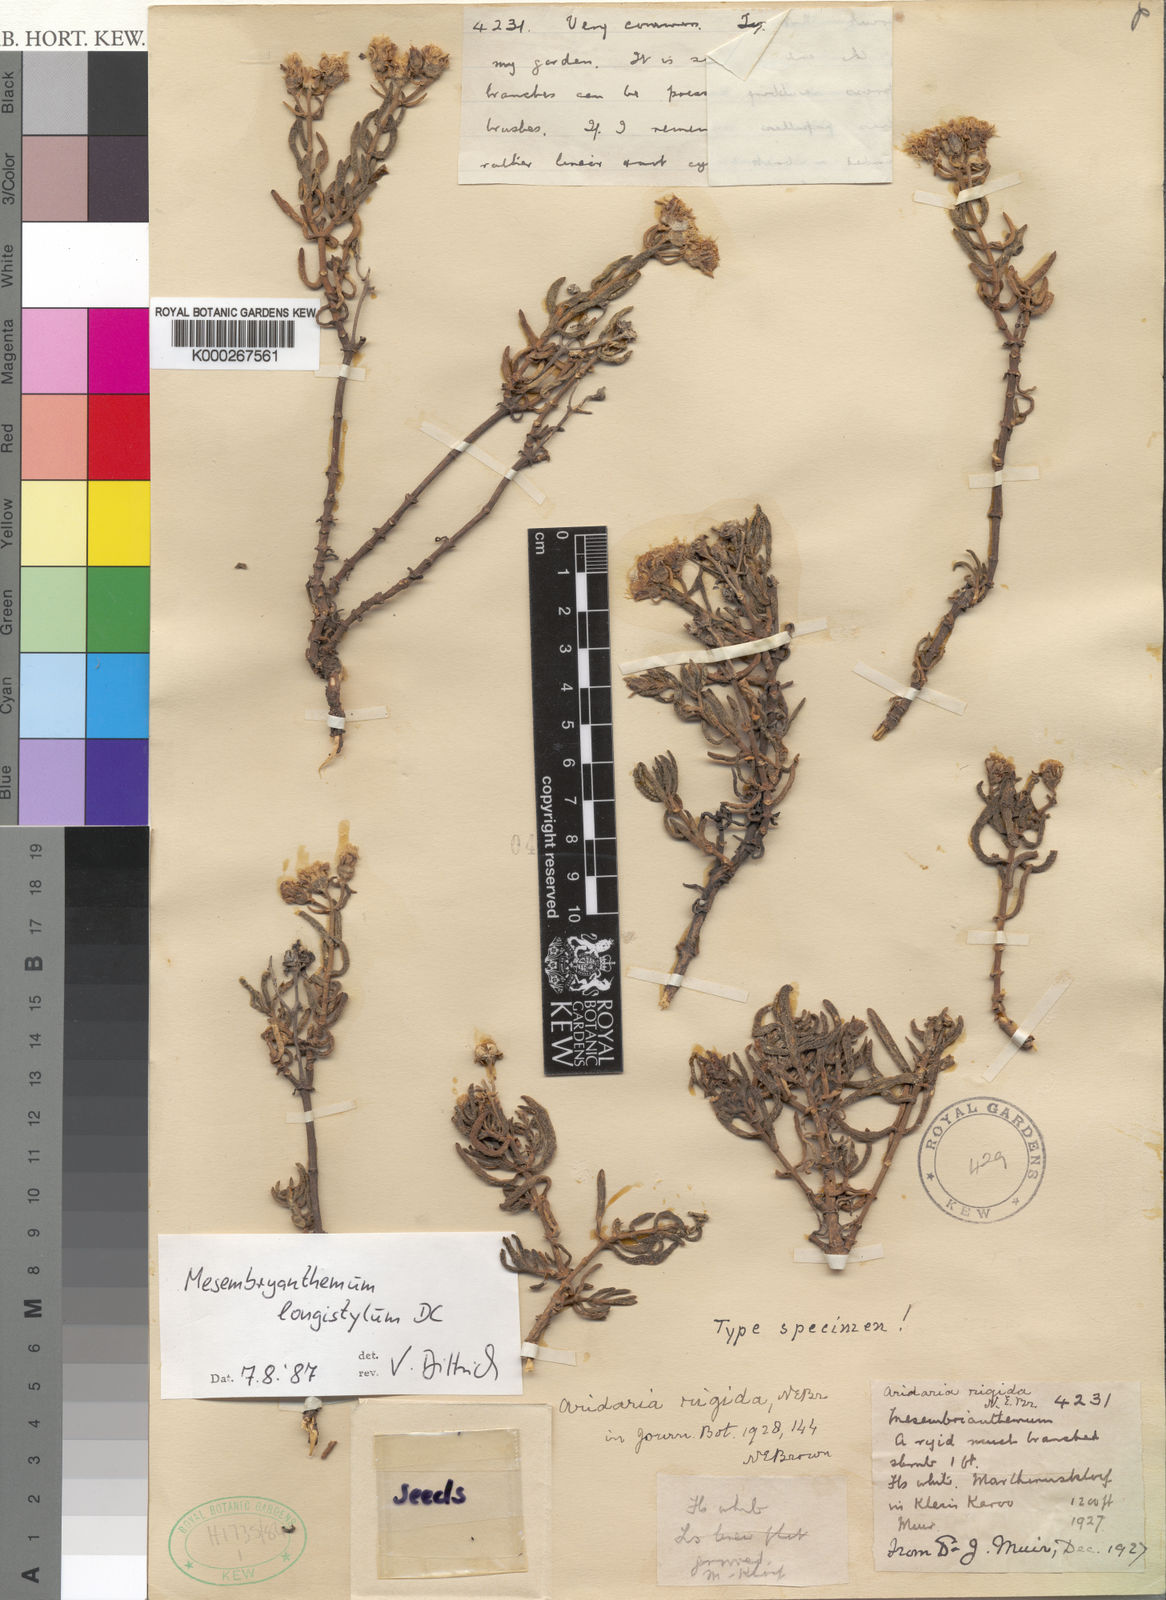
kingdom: Plantae
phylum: Tracheophyta
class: Magnoliopsida
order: Caryophyllales
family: Aizoaceae
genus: Mesembryanthemum
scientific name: Mesembryanthemum longistylum
